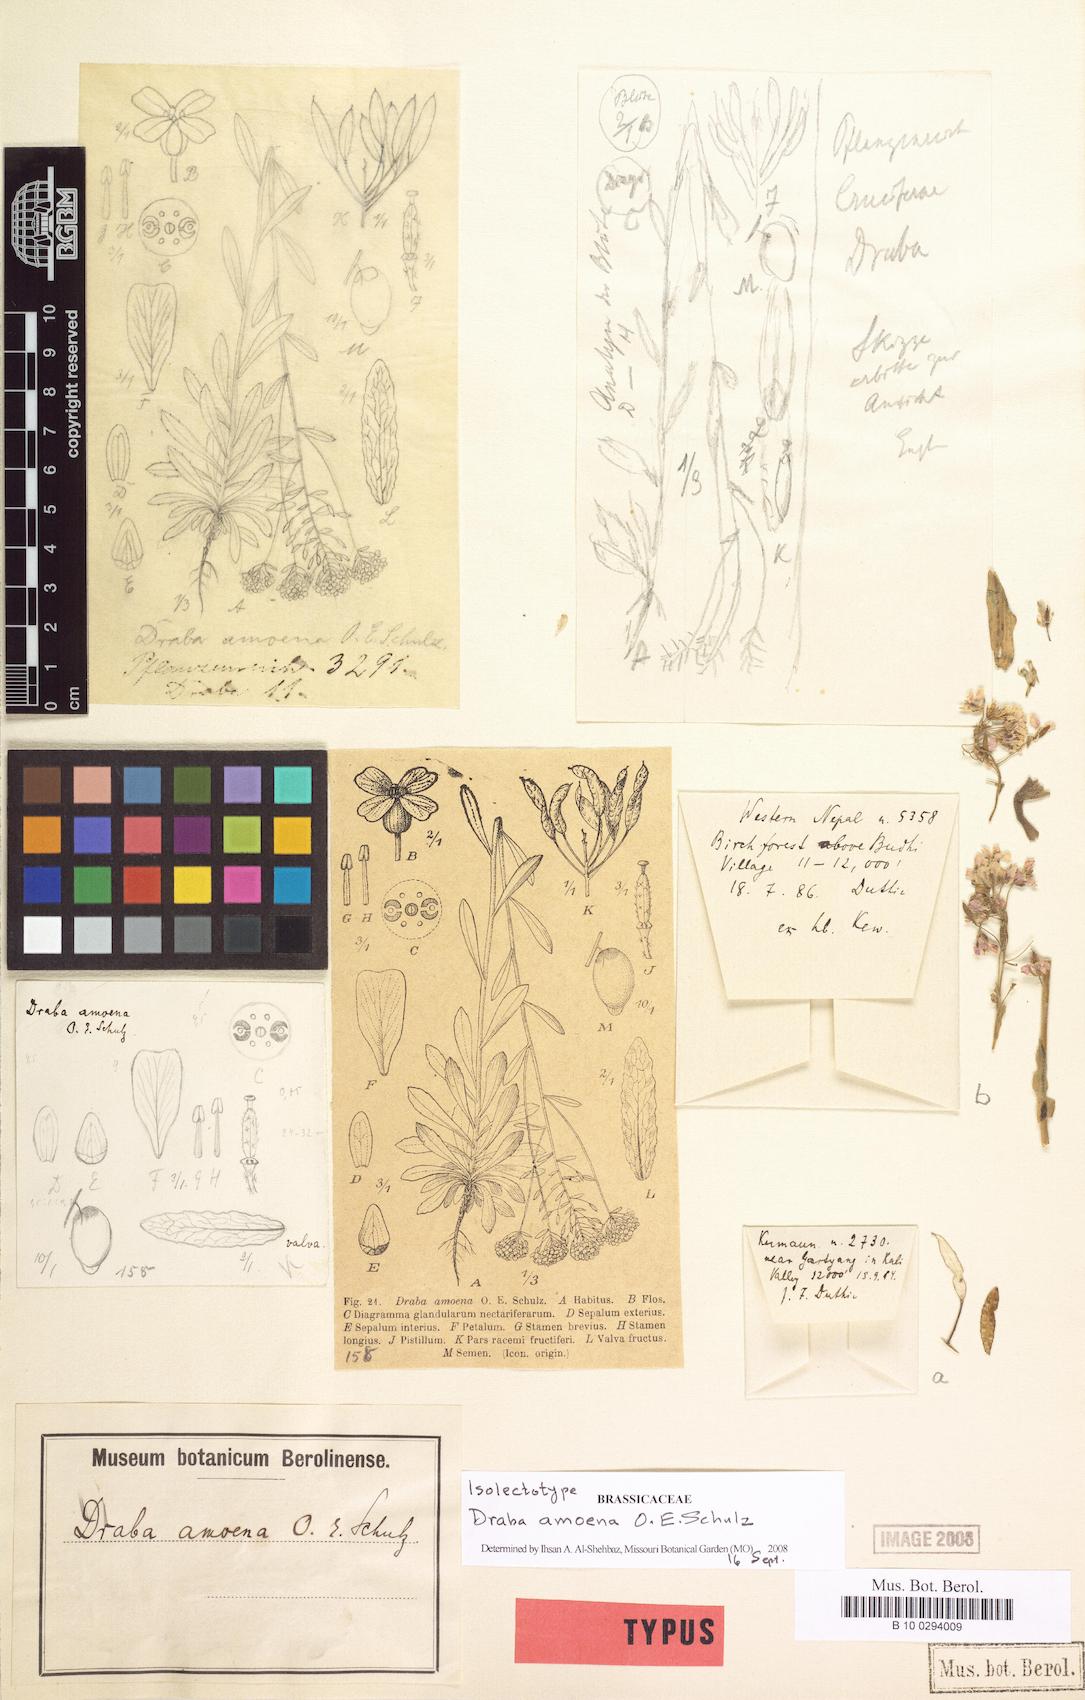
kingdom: Plantae
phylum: Tracheophyta
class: Magnoliopsida
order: Brassicales
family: Brassicaceae
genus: Draba
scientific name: Draba amoena
